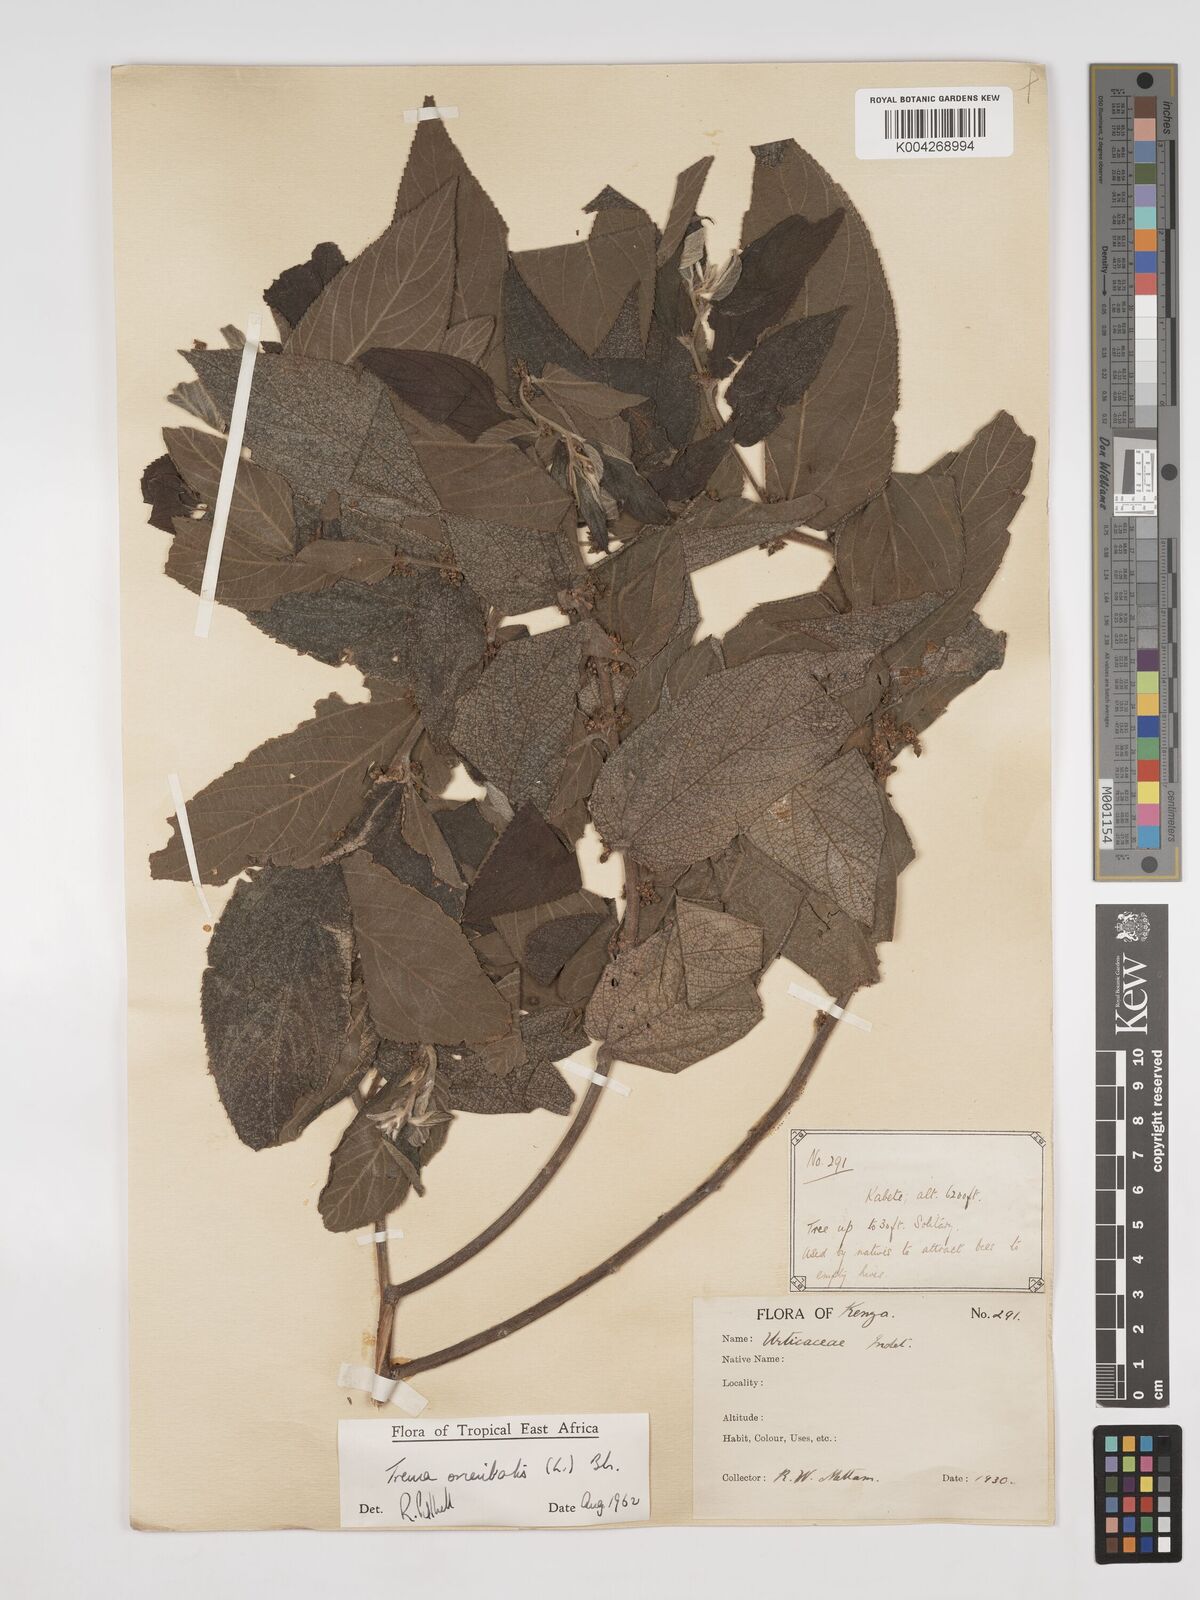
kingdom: Plantae
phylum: Tracheophyta
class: Magnoliopsida
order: Rosales
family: Cannabaceae
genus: Trema
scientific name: Trema orientale
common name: Indian charcoal tree
